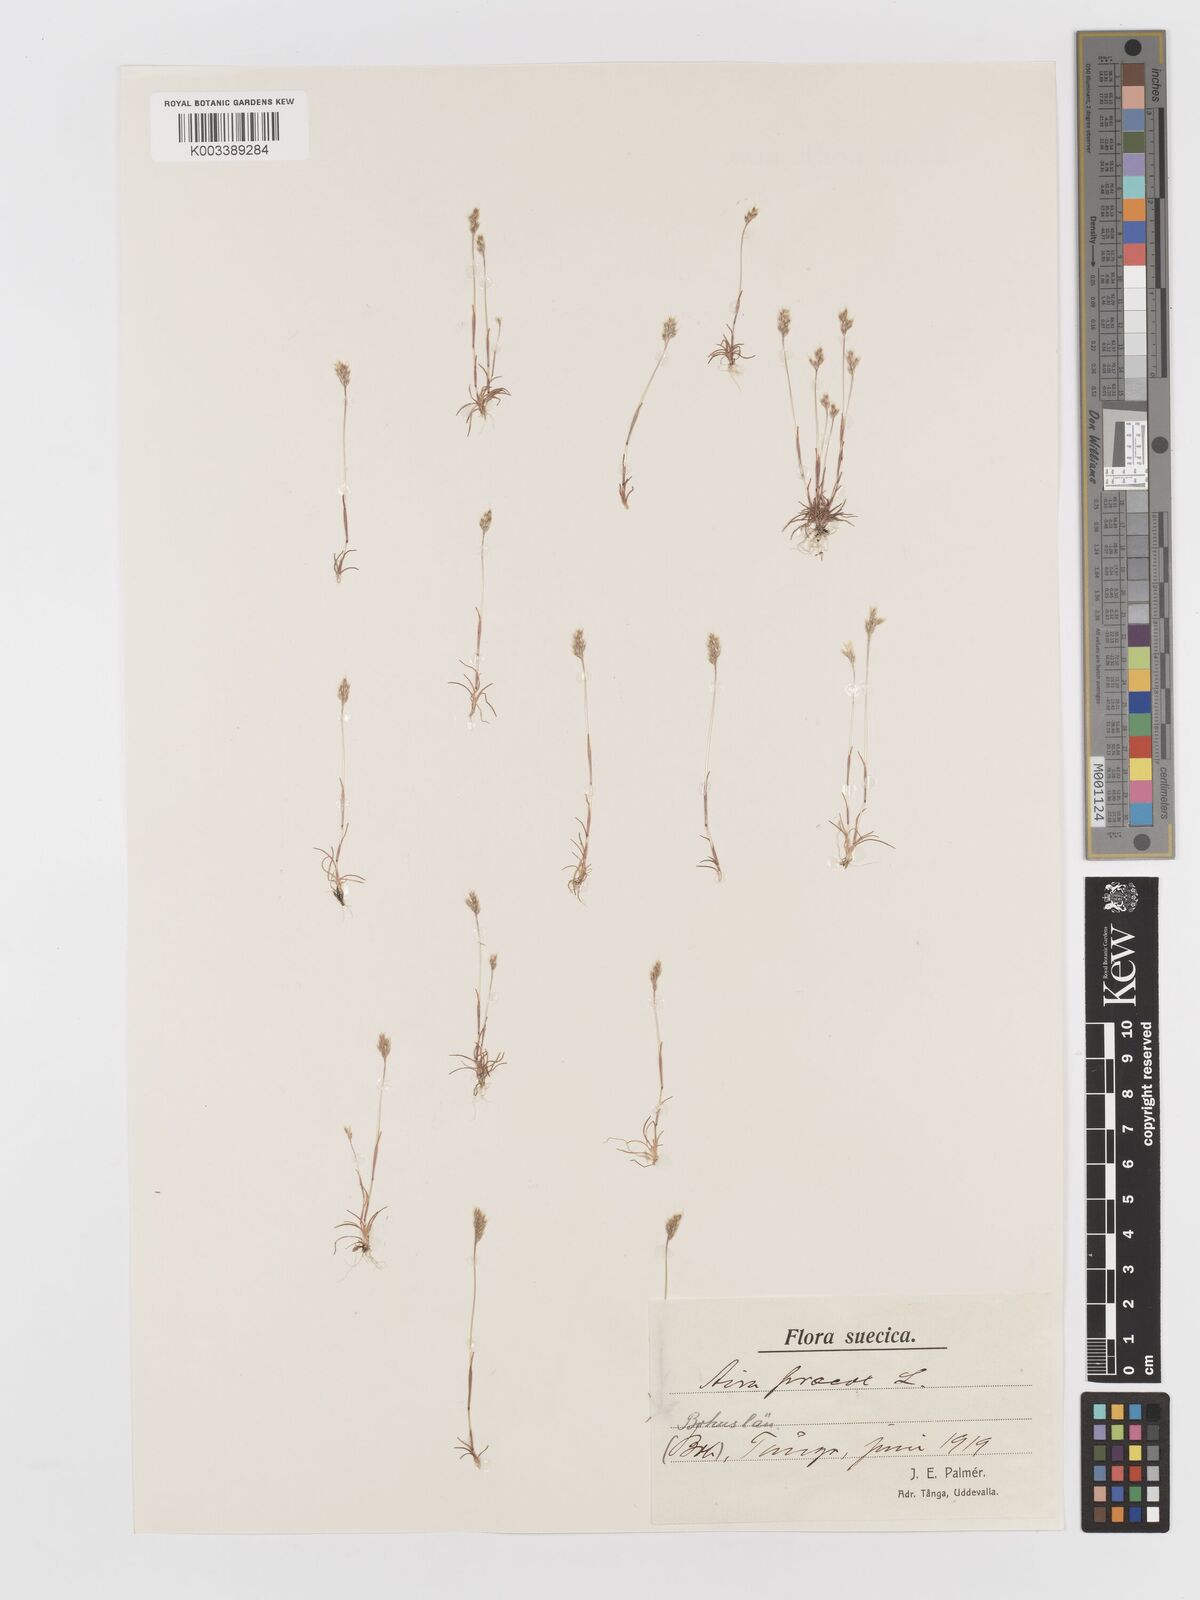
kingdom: Plantae
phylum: Tracheophyta
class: Liliopsida
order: Poales
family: Poaceae
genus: Aira
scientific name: Aira praecox
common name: Early hair-grass
